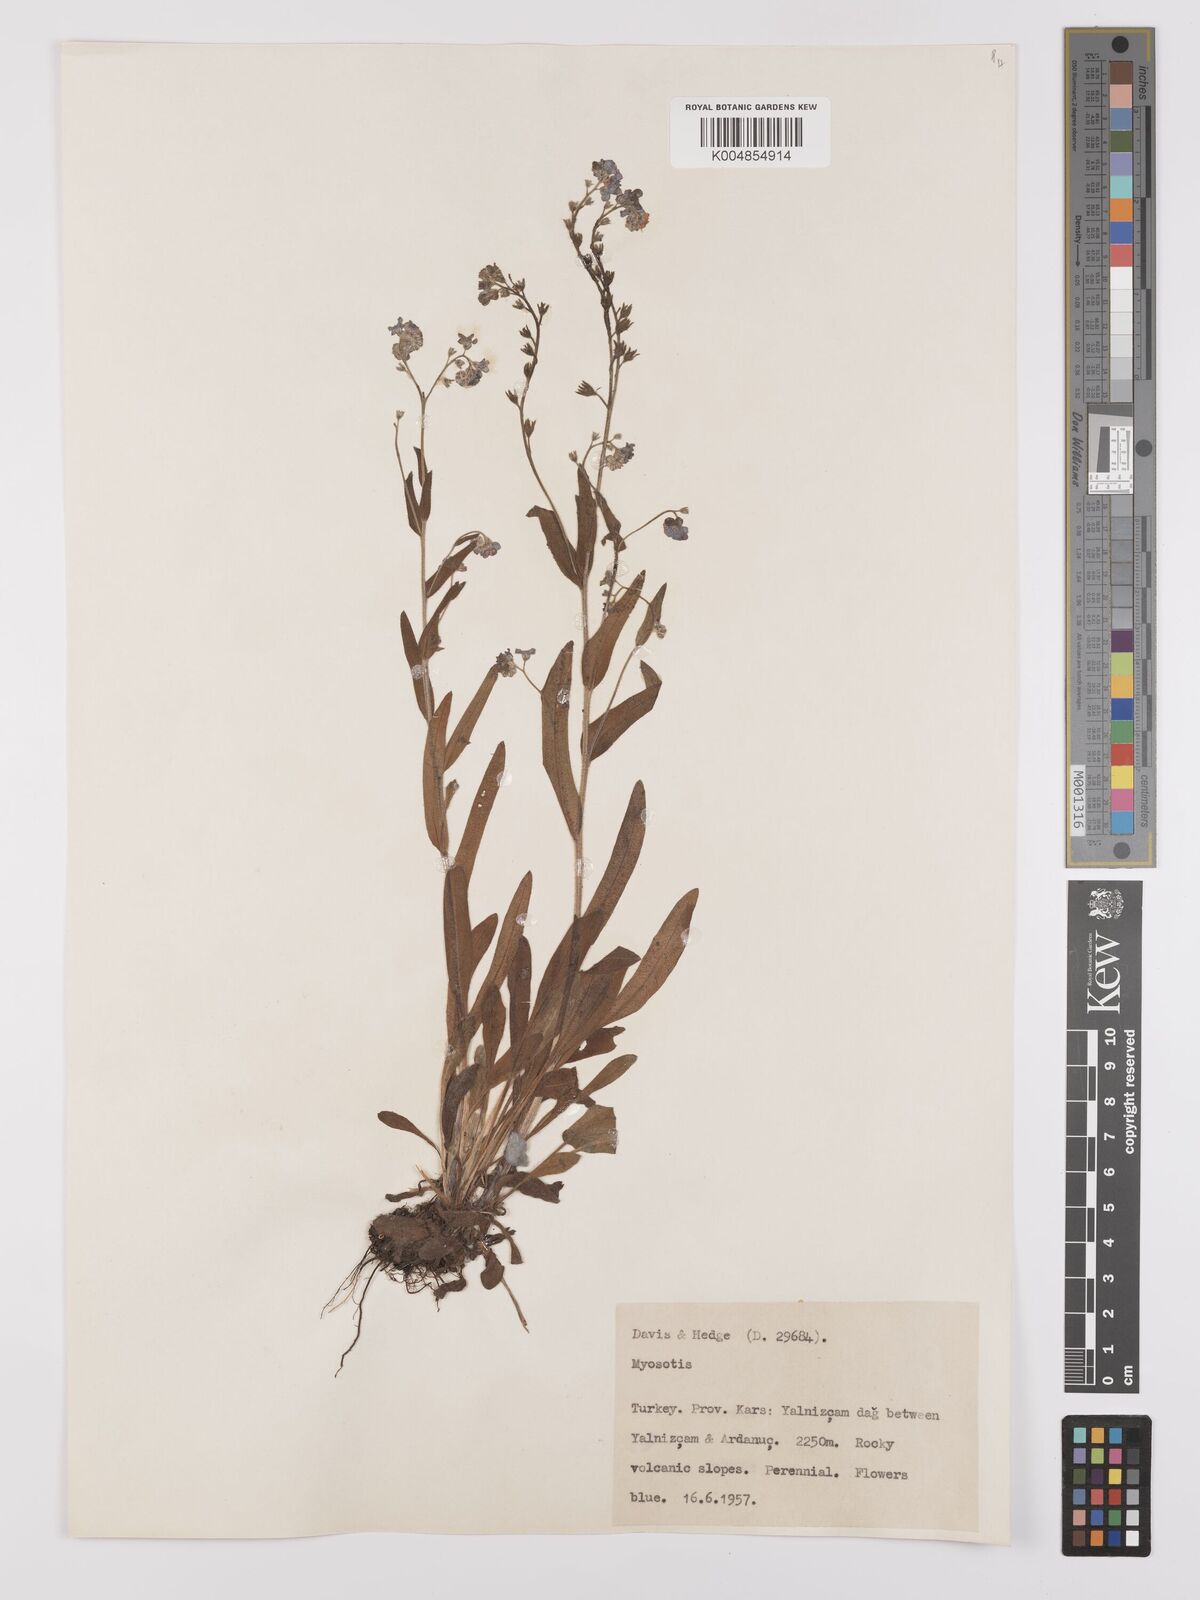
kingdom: Plantae
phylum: Tracheophyta
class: Magnoliopsida
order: Boraginales
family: Boraginaceae
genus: Myosotis
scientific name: Myosotis
